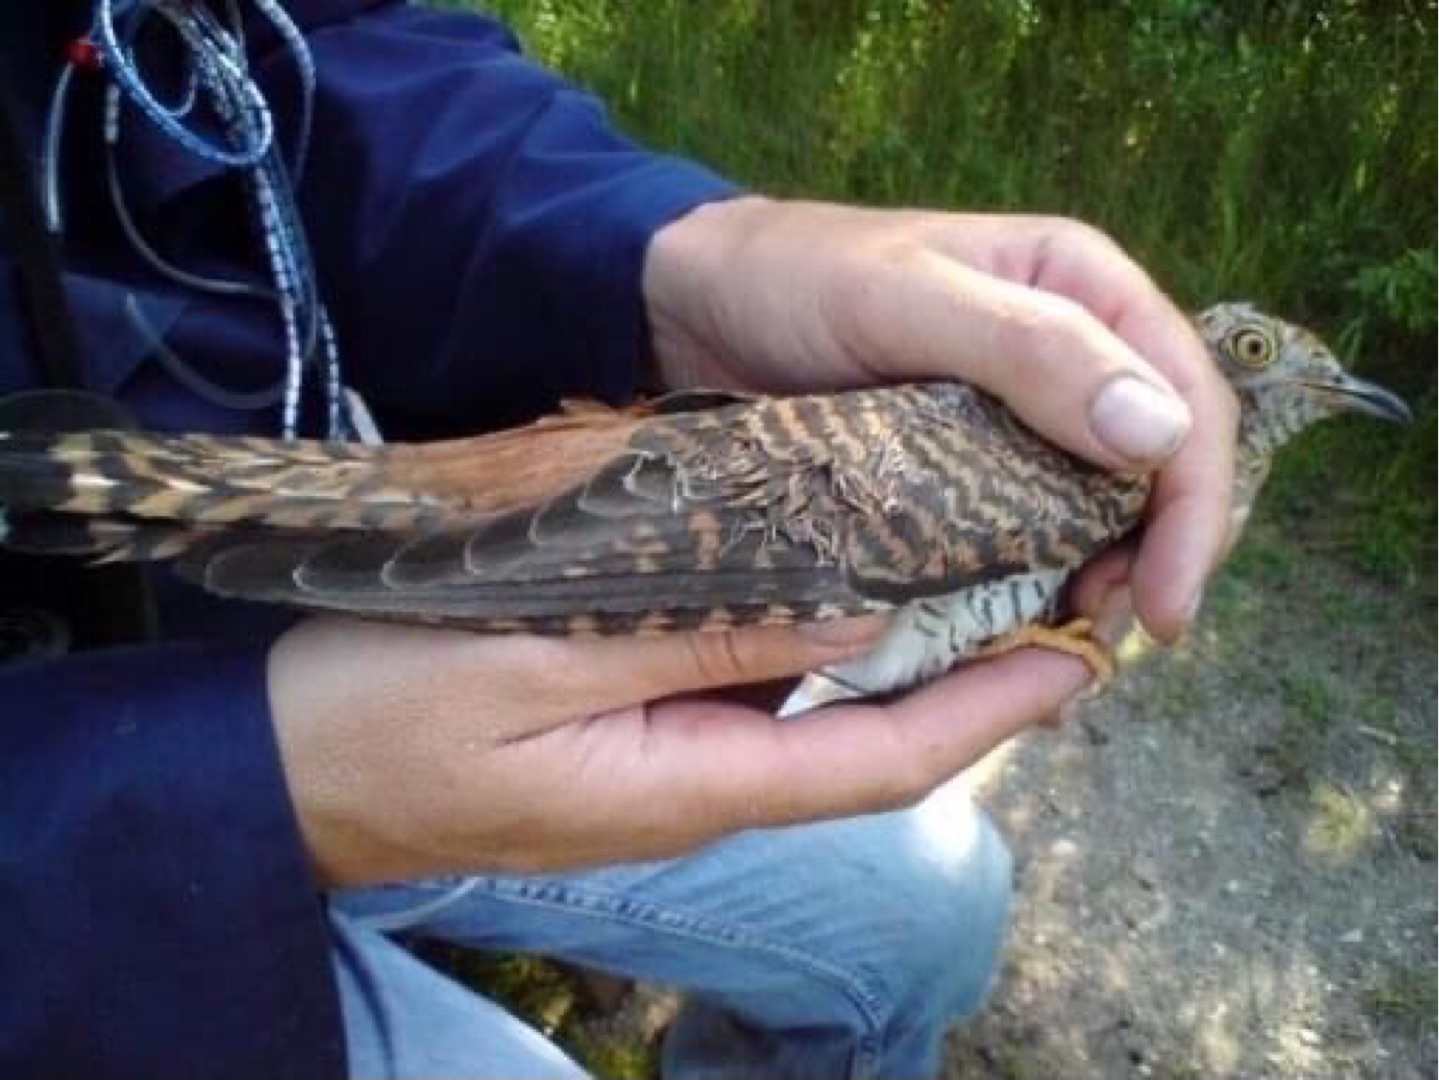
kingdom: Animalia
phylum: Chordata
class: Aves
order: Cuculiformes
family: Cuculidae
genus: Cuculus
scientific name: Cuculus canorus
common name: Gøg
